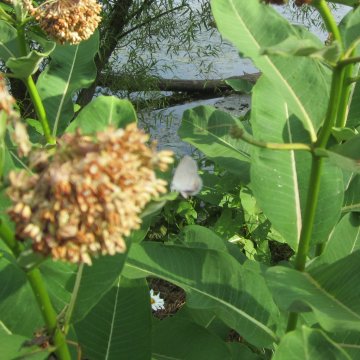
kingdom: Animalia
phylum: Arthropoda
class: Insecta
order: Lepidoptera
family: Lycaenidae
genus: Elkalyce
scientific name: Elkalyce comyntas
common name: Eastern Tailed-Blue
